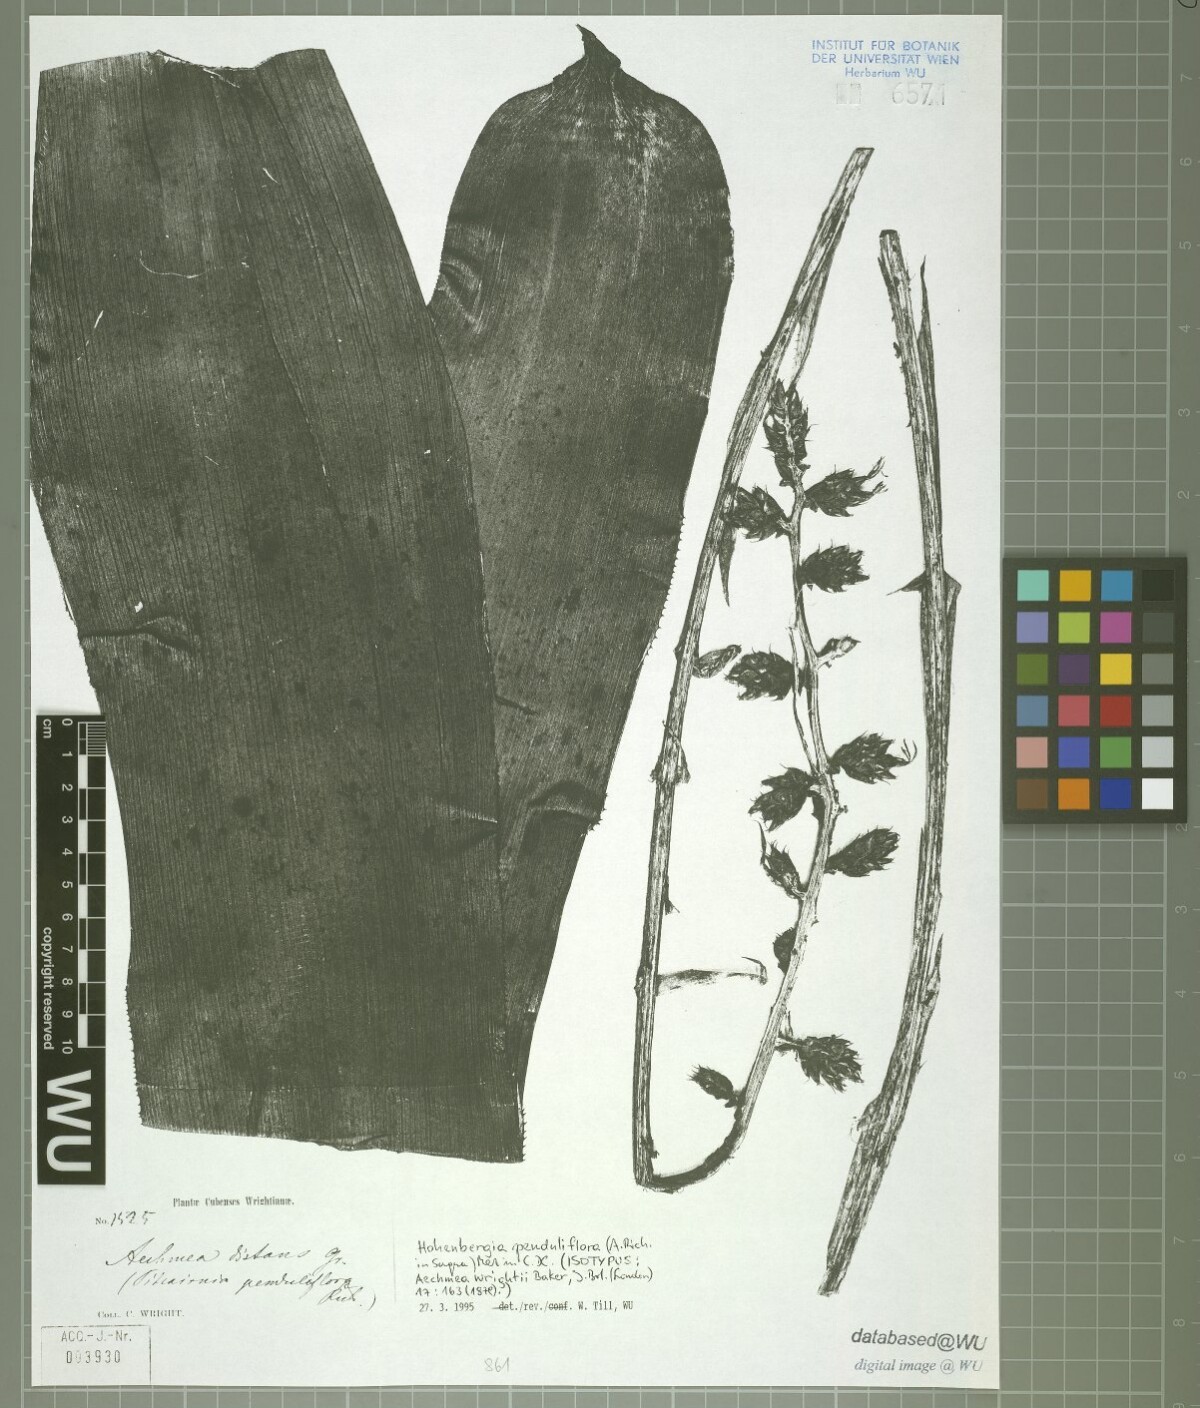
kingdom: Plantae
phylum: Tracheophyta
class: Liliopsida
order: Poales
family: Bromeliaceae
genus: Wittmackia
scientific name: Wittmackia penduliflora
